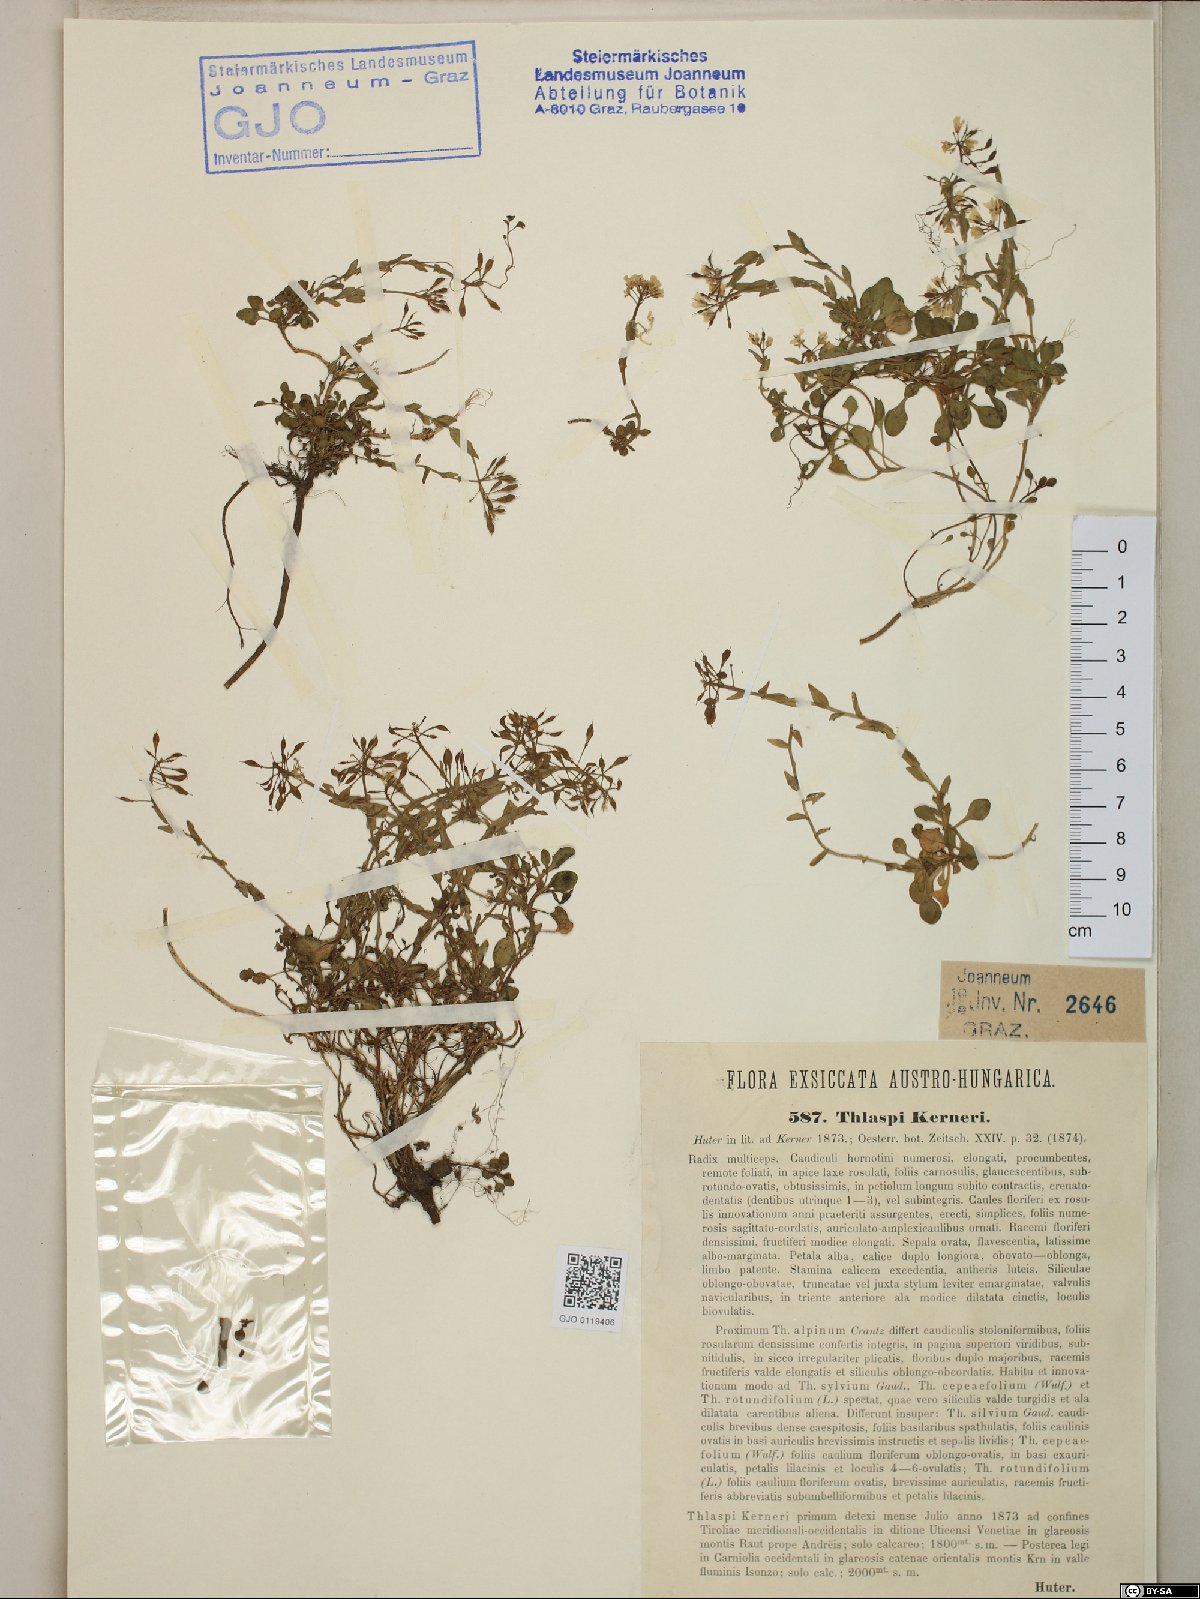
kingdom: Plantae
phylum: Tracheophyta
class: Magnoliopsida
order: Brassicales
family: Brassicaceae
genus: Noccaea
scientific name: Noccaea minima
